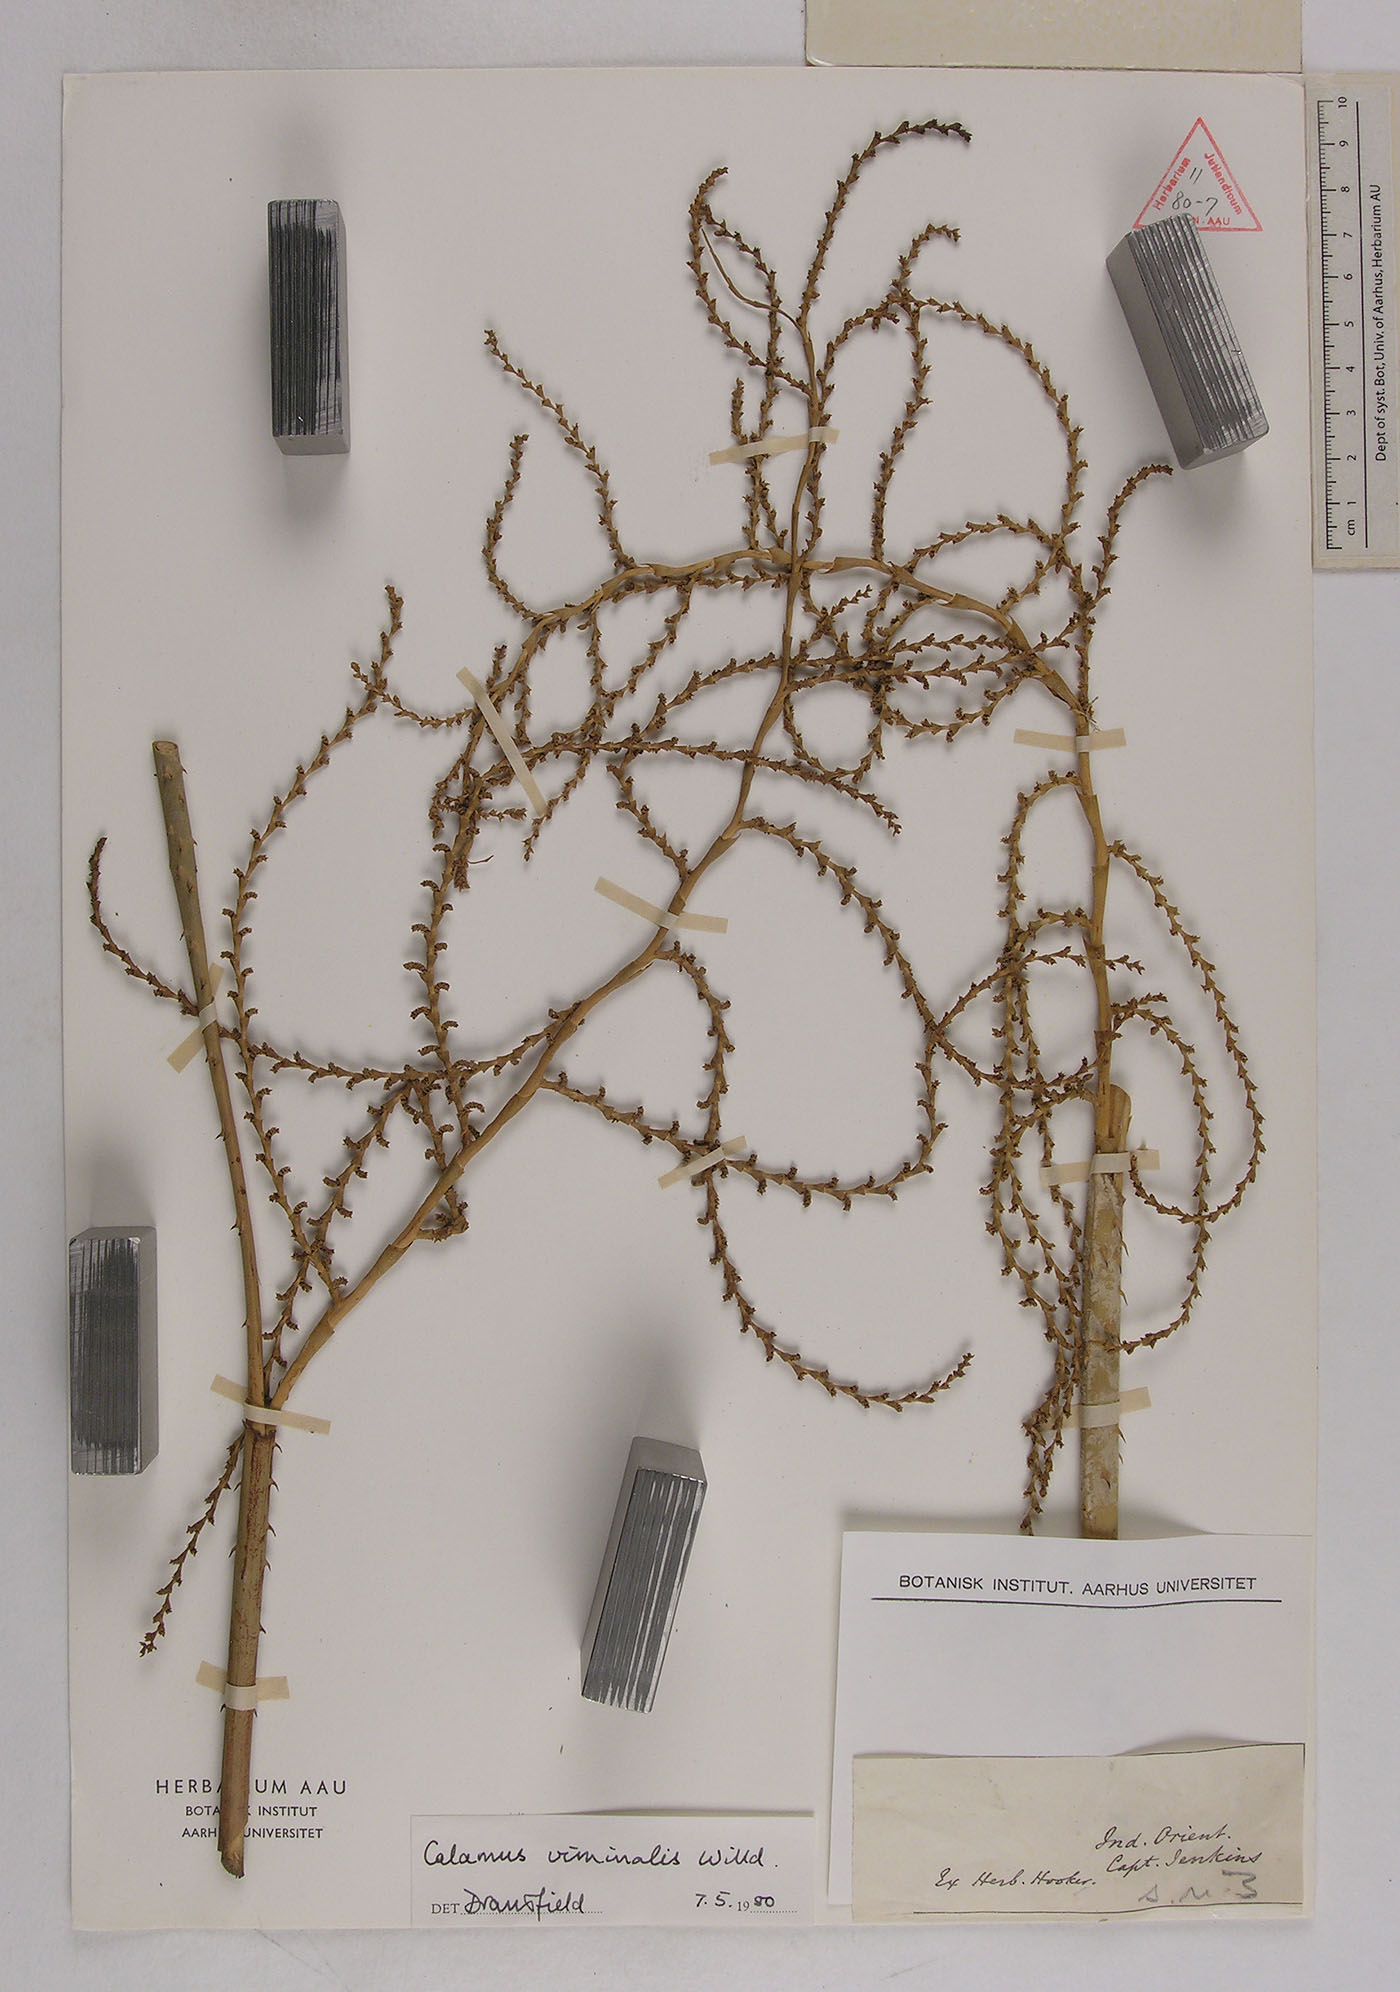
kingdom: Plantae
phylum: Tracheophyta
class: Liliopsida
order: Arecales
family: Arecaceae
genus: Calamus
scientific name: Calamus viminalis
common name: Osier-like rattan palm
